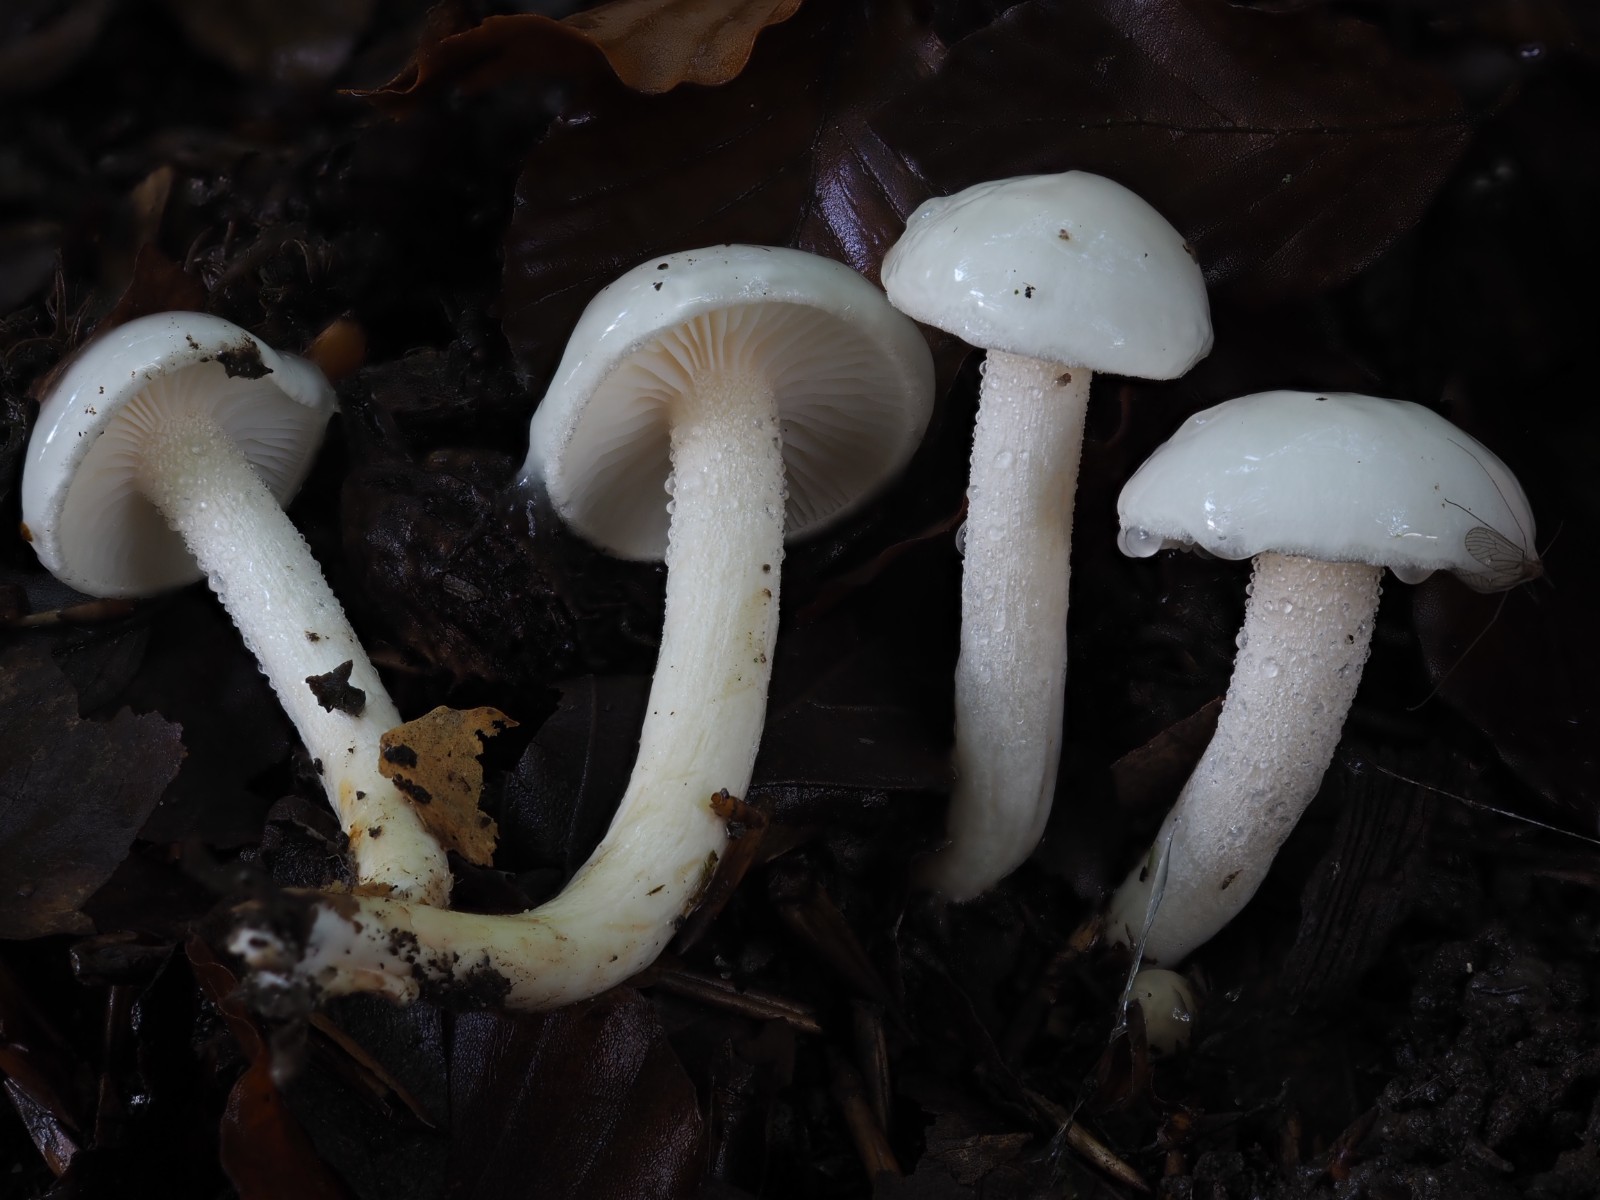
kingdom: Fungi
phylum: Basidiomycota
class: Agaricomycetes
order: Agaricales
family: Hygrophoraceae
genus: Hygrophorus
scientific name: Hygrophorus eburneus
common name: elfenbens-sneglehat
